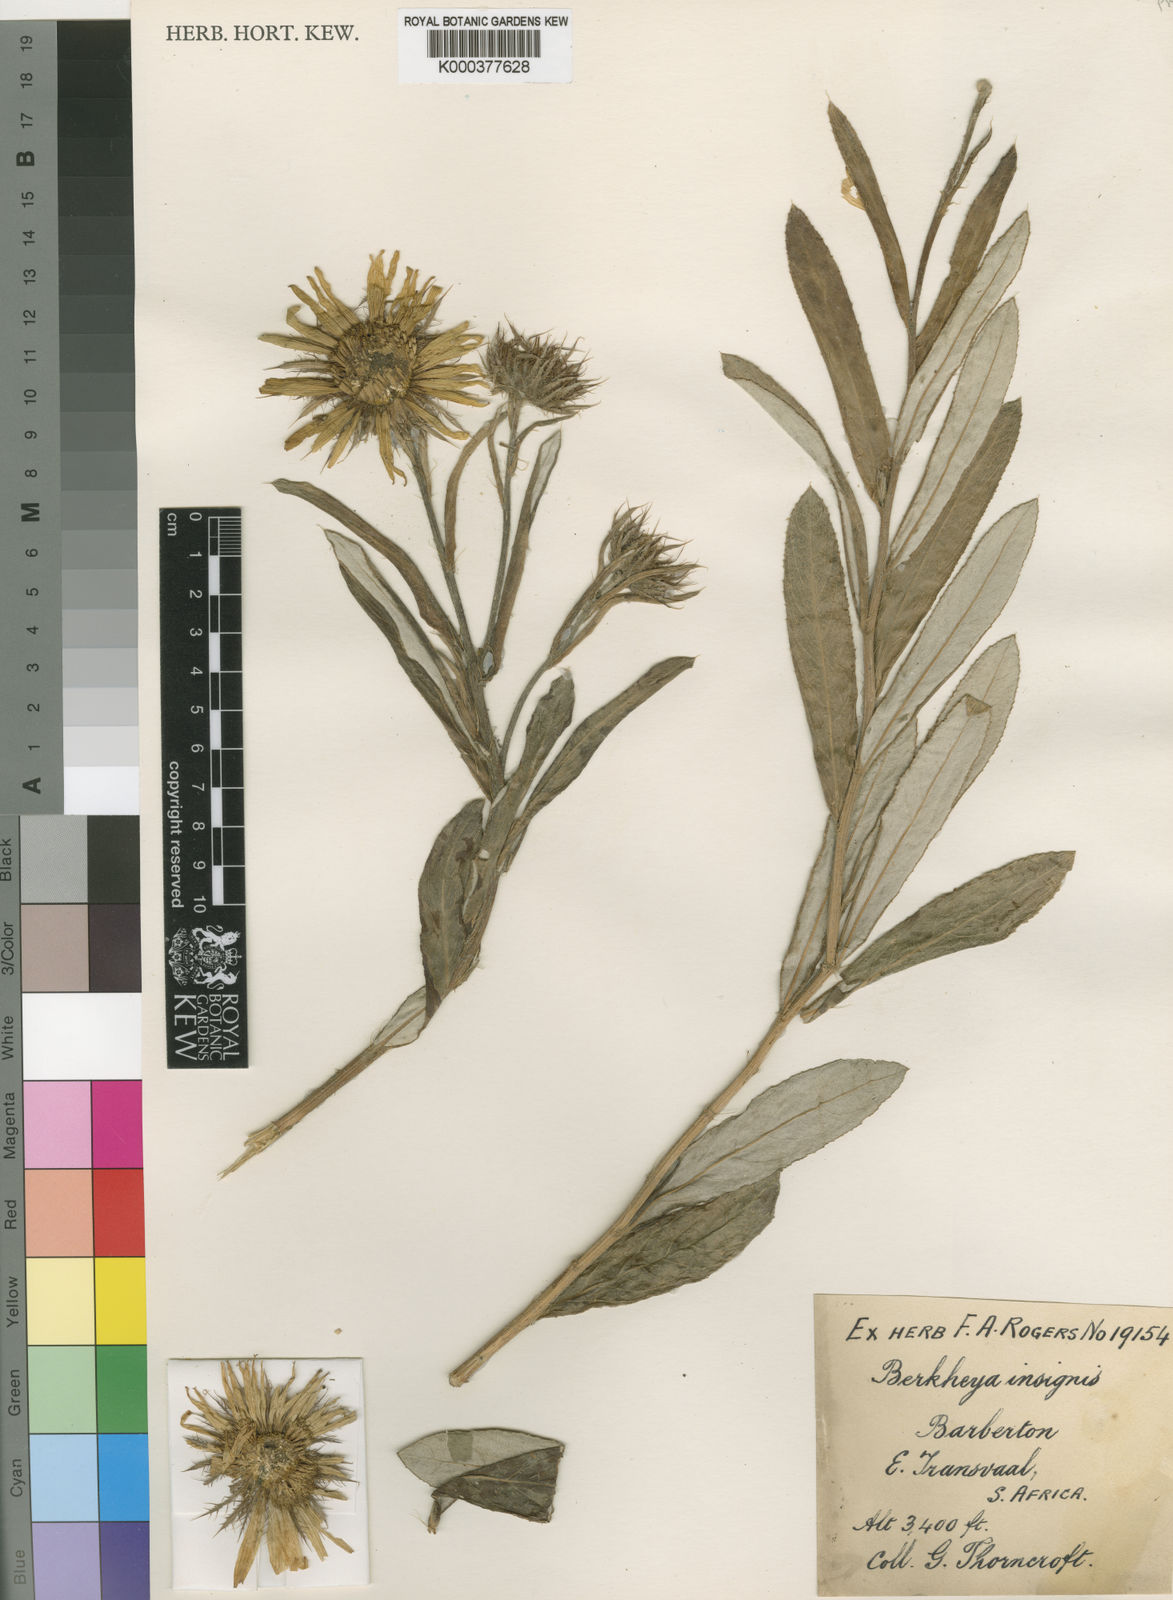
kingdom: Plantae
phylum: Tracheophyta
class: Magnoliopsida
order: Asterales
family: Asteraceae
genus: Berkheya
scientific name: Berkheya
